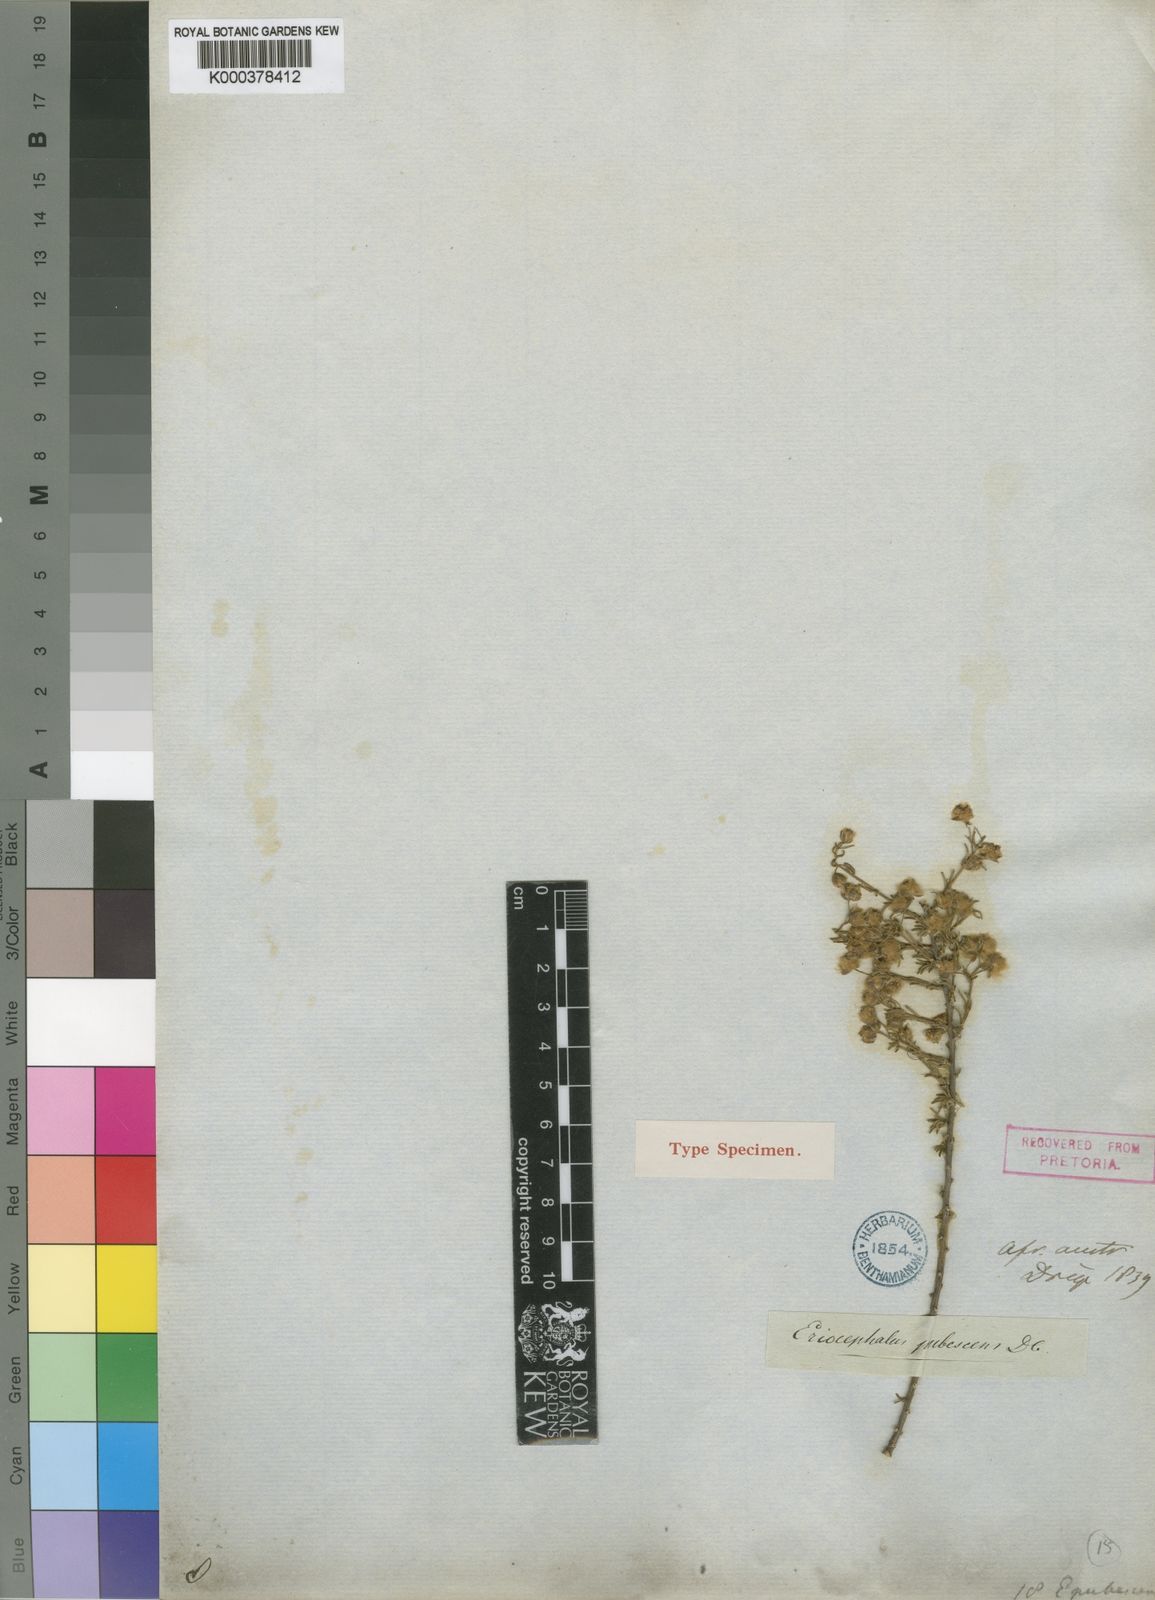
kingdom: Plantae
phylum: Tracheophyta
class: Magnoliopsida
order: Asterales
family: Asteraceae
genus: Eriocephalus
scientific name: Eriocephalus microphyllus
